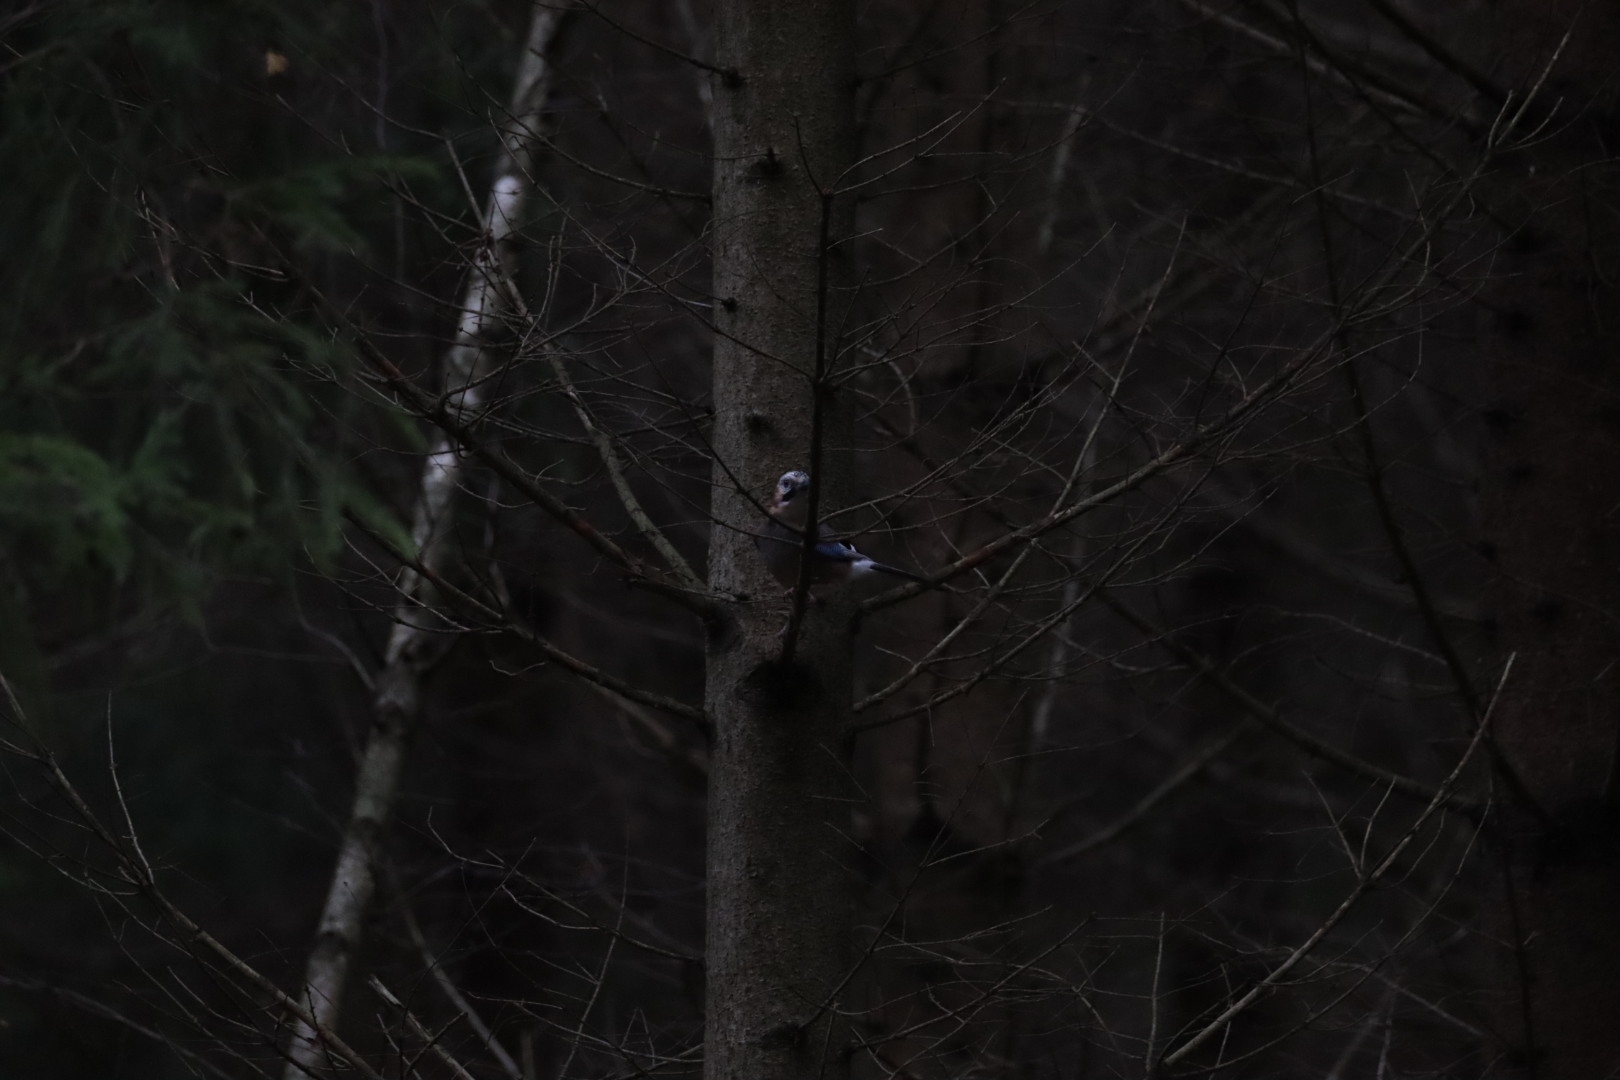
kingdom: Animalia
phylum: Chordata
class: Aves
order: Passeriformes
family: Corvidae
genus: Garrulus
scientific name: Garrulus glandarius
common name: Skovskade
